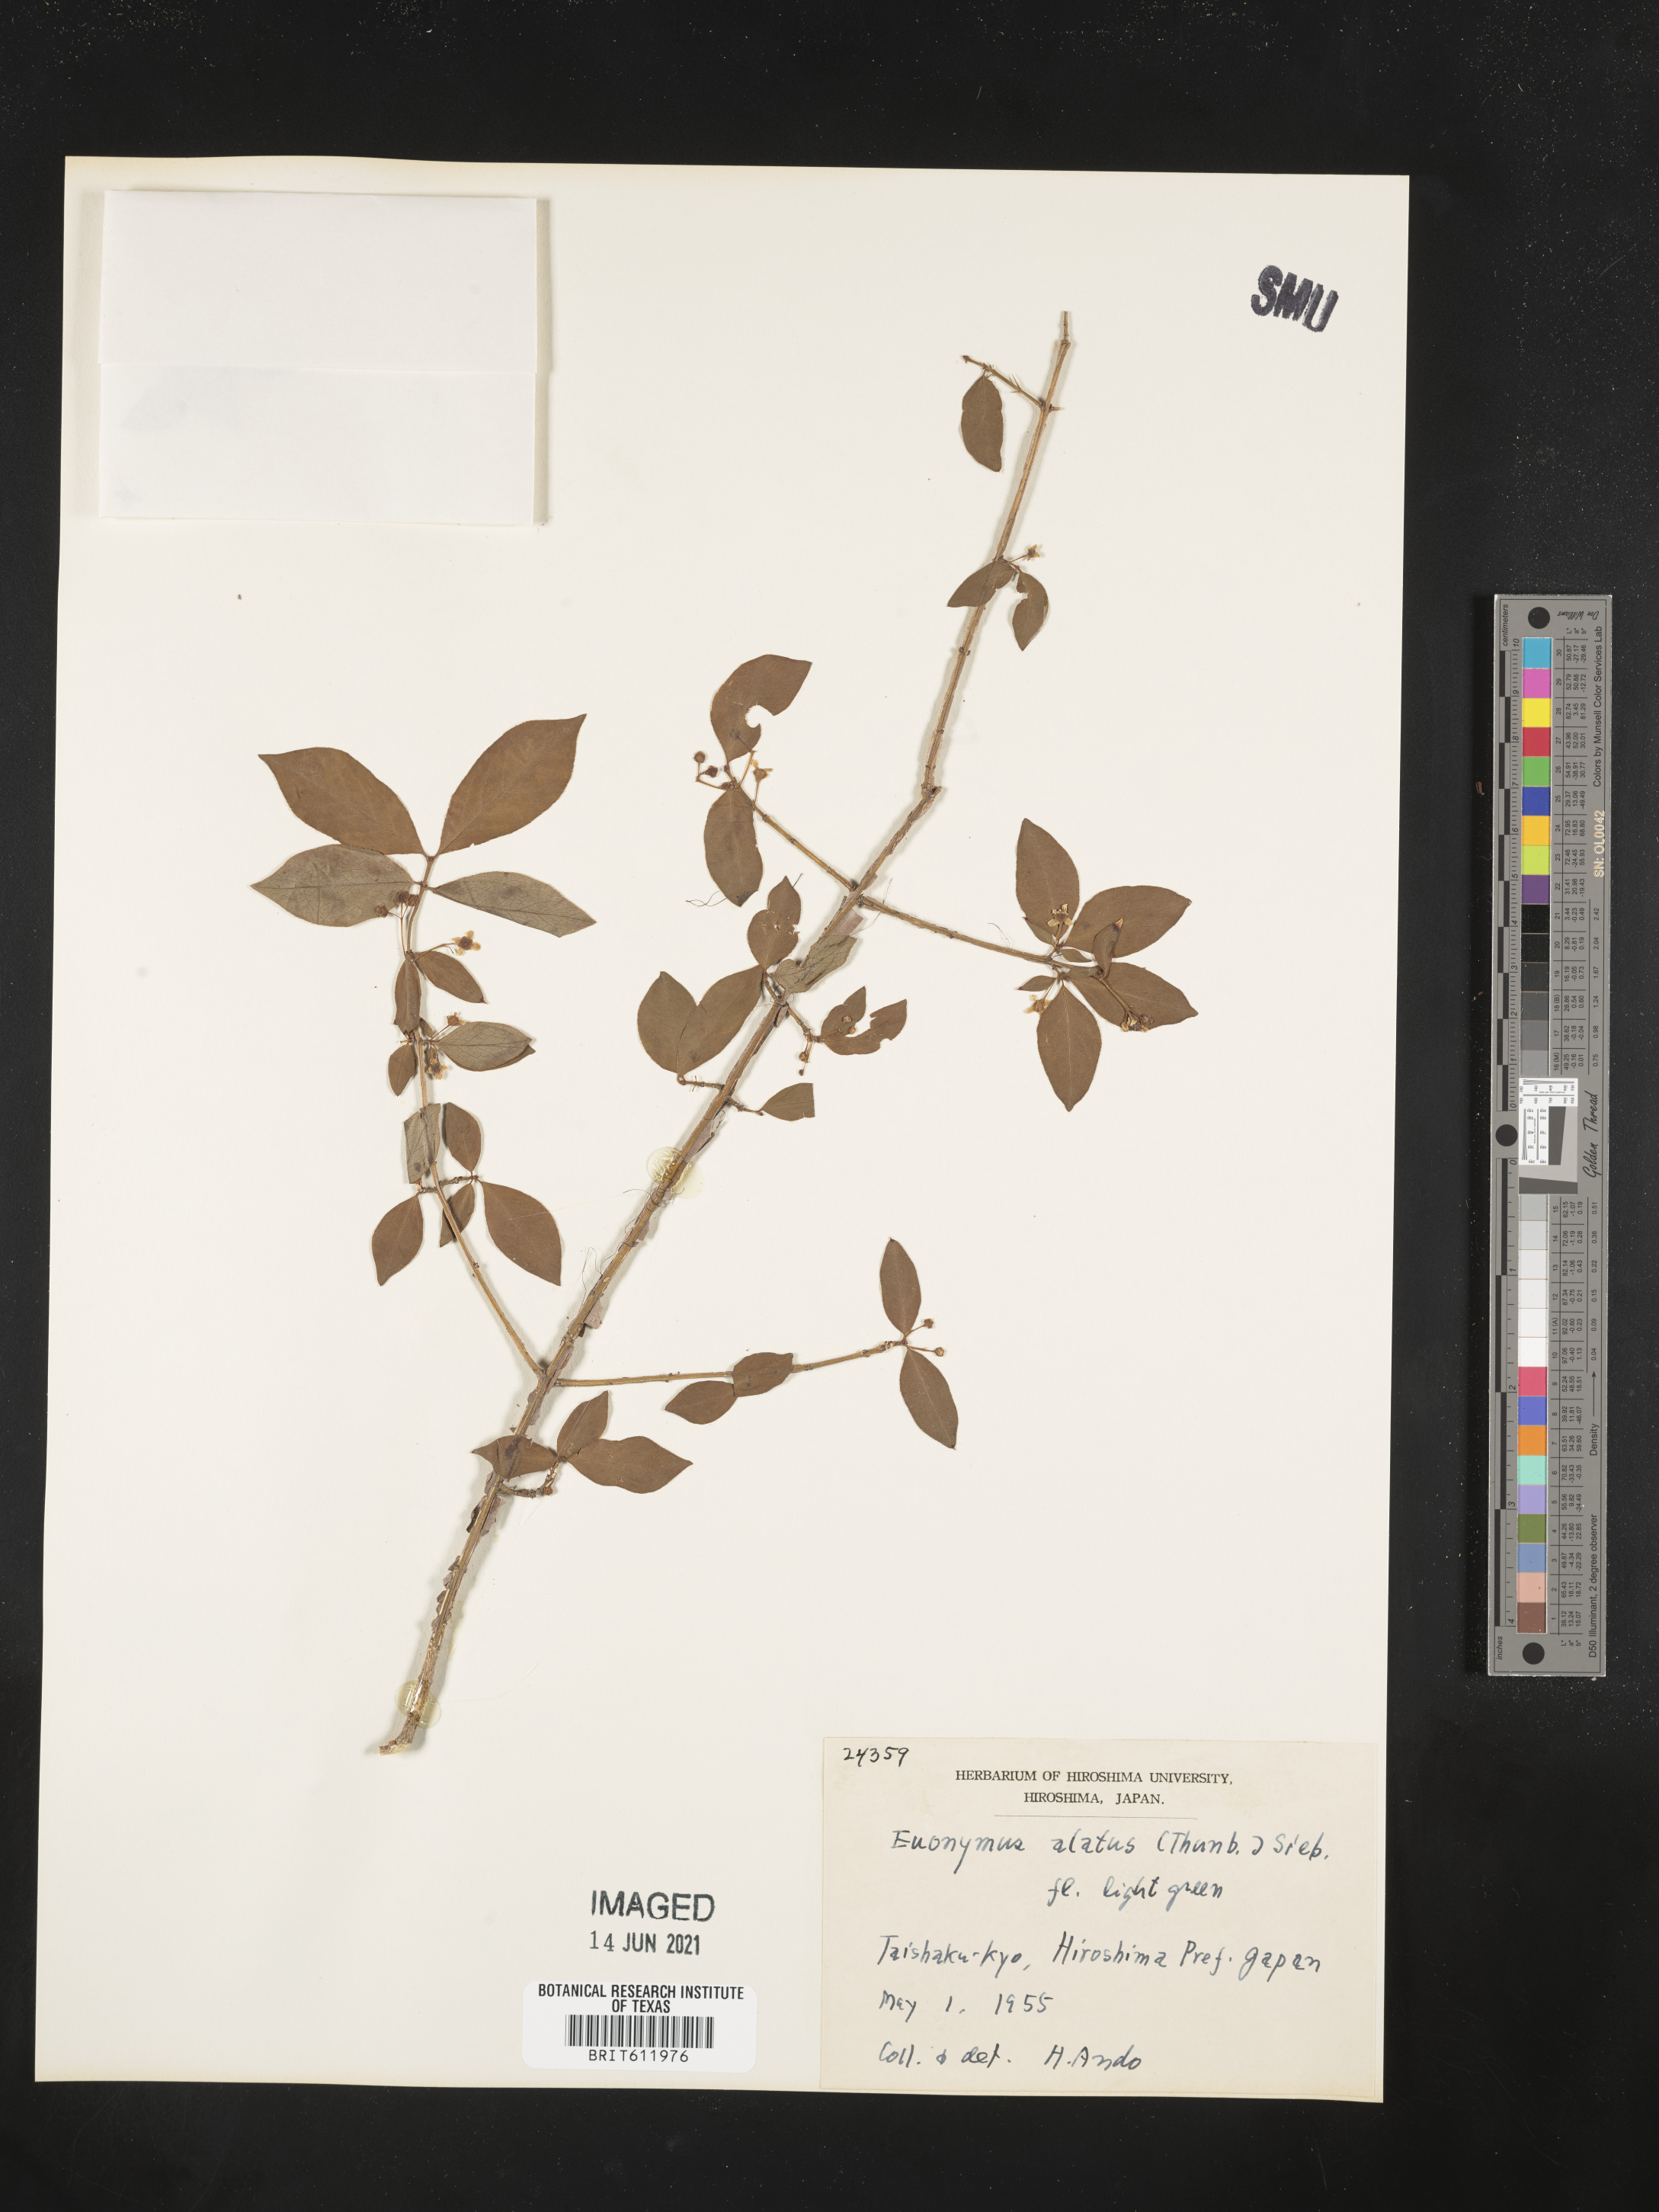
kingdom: Plantae
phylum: Tracheophyta
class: Magnoliopsida
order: Celastrales
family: Celastraceae
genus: Euonymus
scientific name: Euonymus alatus
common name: Winged euonymus
